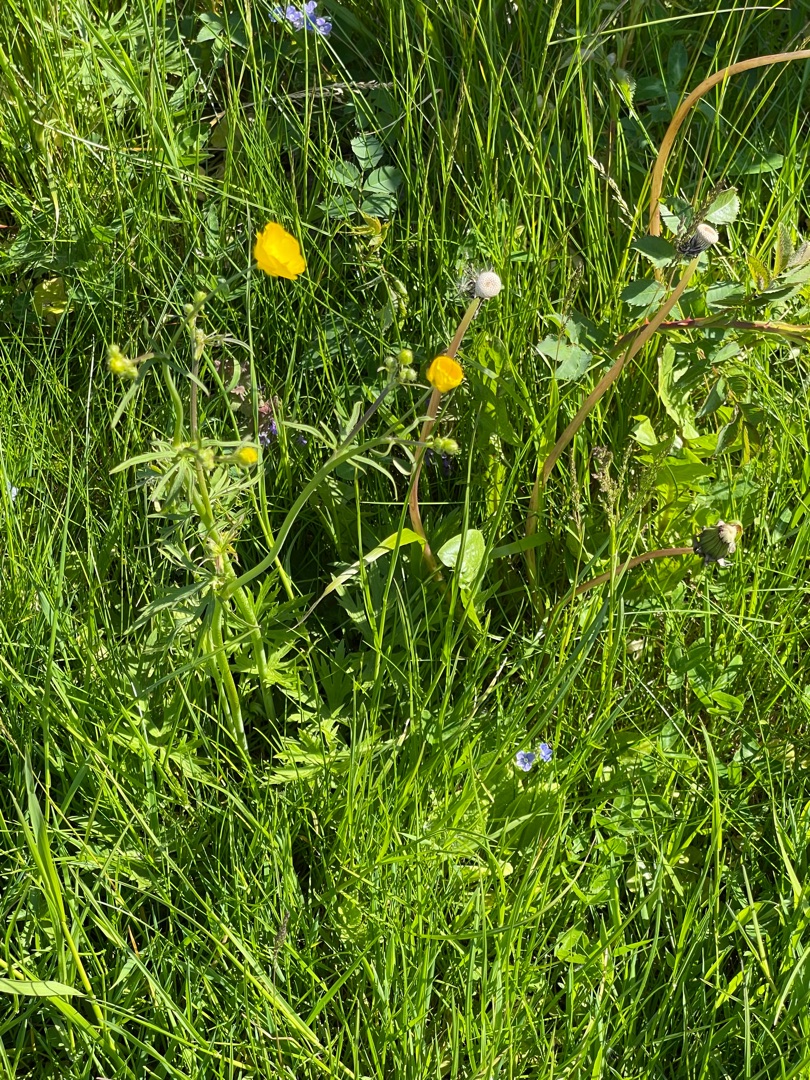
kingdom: Plantae
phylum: Tracheophyta
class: Magnoliopsida
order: Ranunculales
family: Ranunculaceae
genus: Ranunculus
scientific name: Ranunculus acris
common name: Bidende ranunkel
